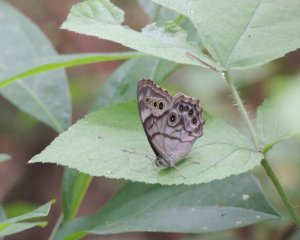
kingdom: Animalia
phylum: Arthropoda
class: Insecta
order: Lepidoptera
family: Nymphalidae
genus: Lethe
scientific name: Lethe anthedon
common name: Northern Pearly-Eye
